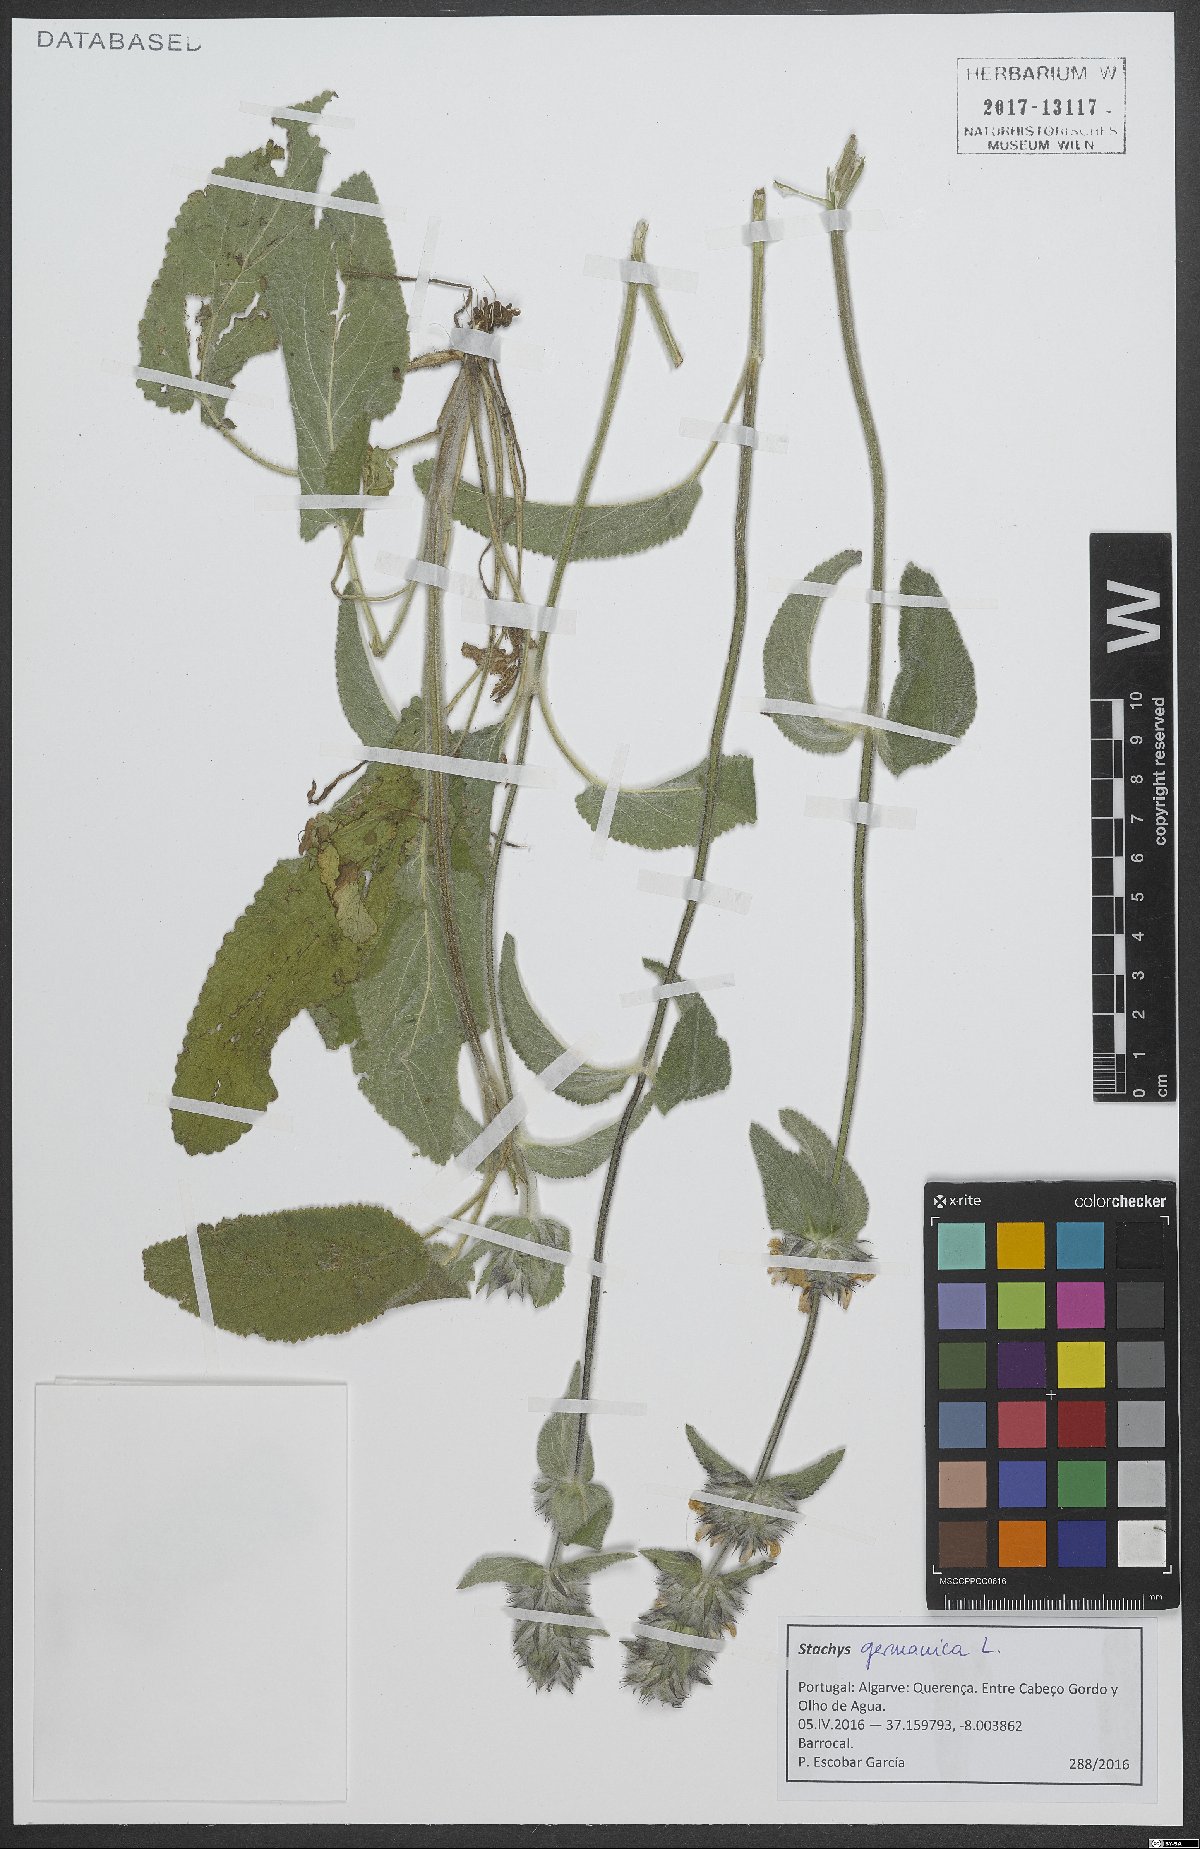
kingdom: Plantae
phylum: Tracheophyta
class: Magnoliopsida
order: Lamiales
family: Lamiaceae
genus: Stachys
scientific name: Stachys germanica
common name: Downy woundwort
